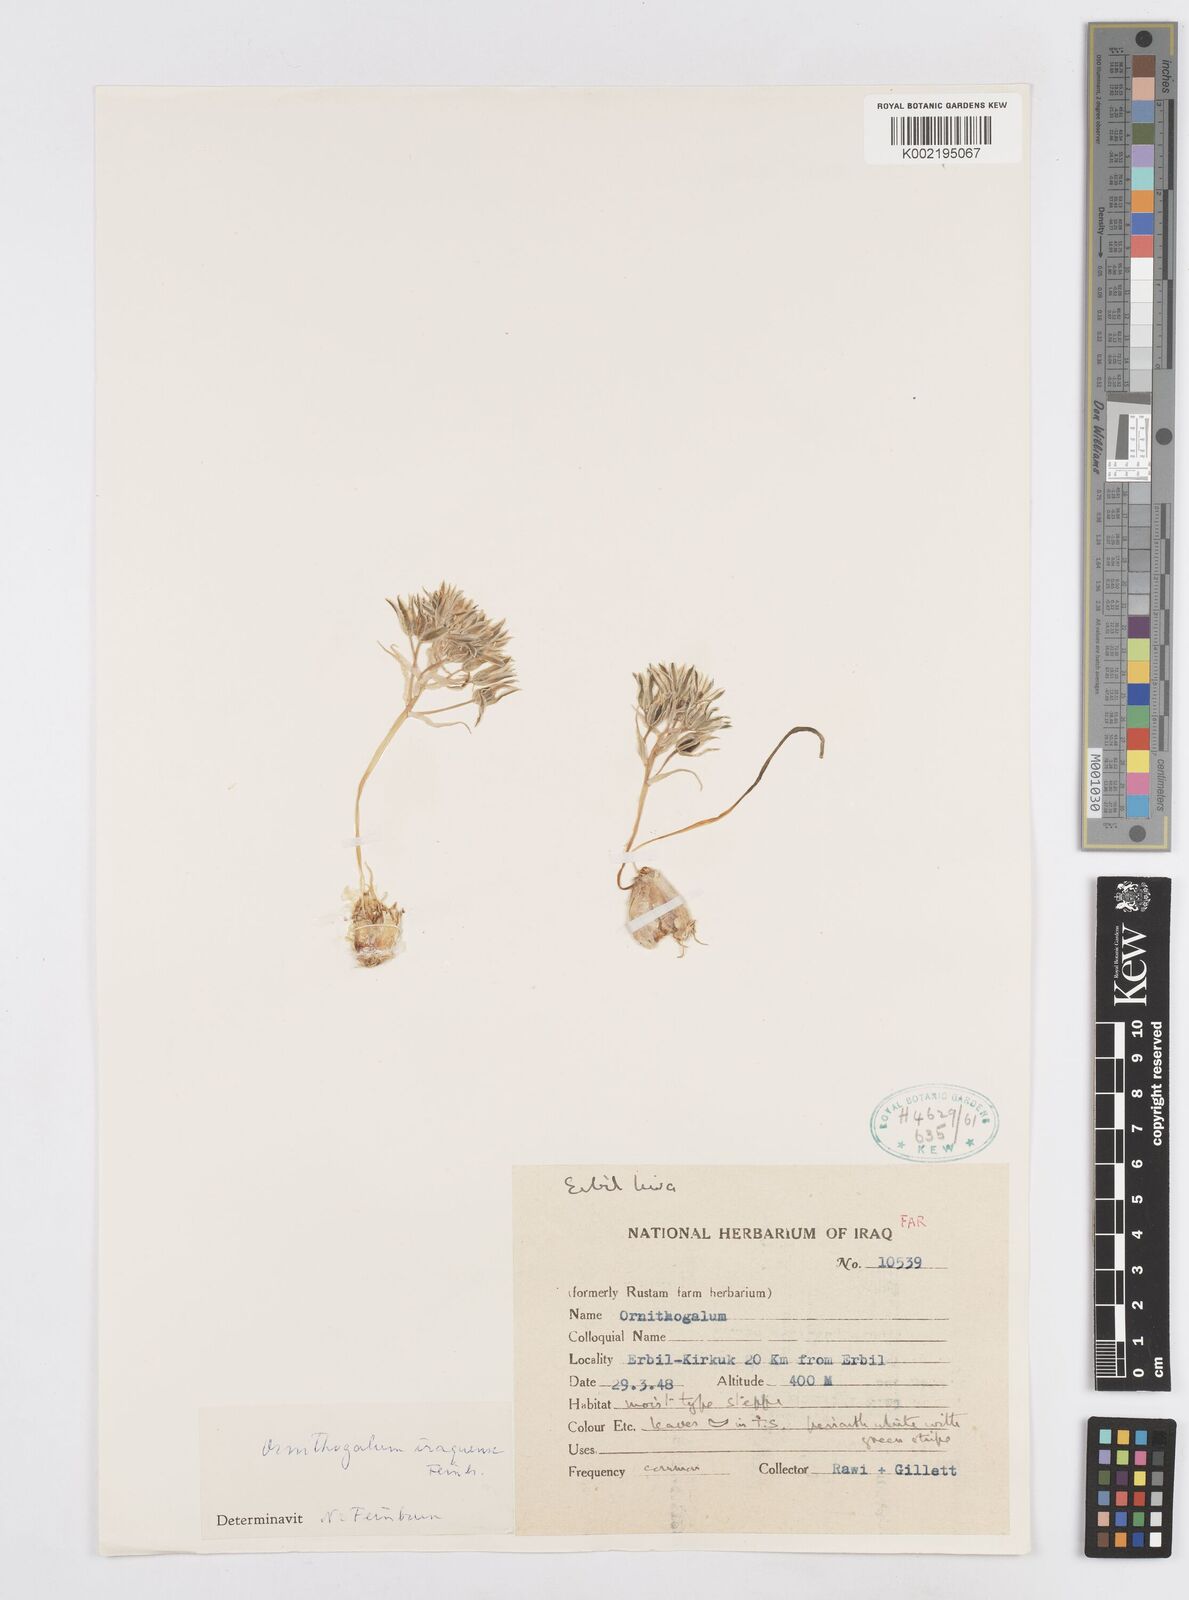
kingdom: Plantae
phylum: Tracheophyta
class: Liliopsida
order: Asparagales
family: Asparagaceae
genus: Ornithogalum
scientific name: Ornithogalum iraqense
